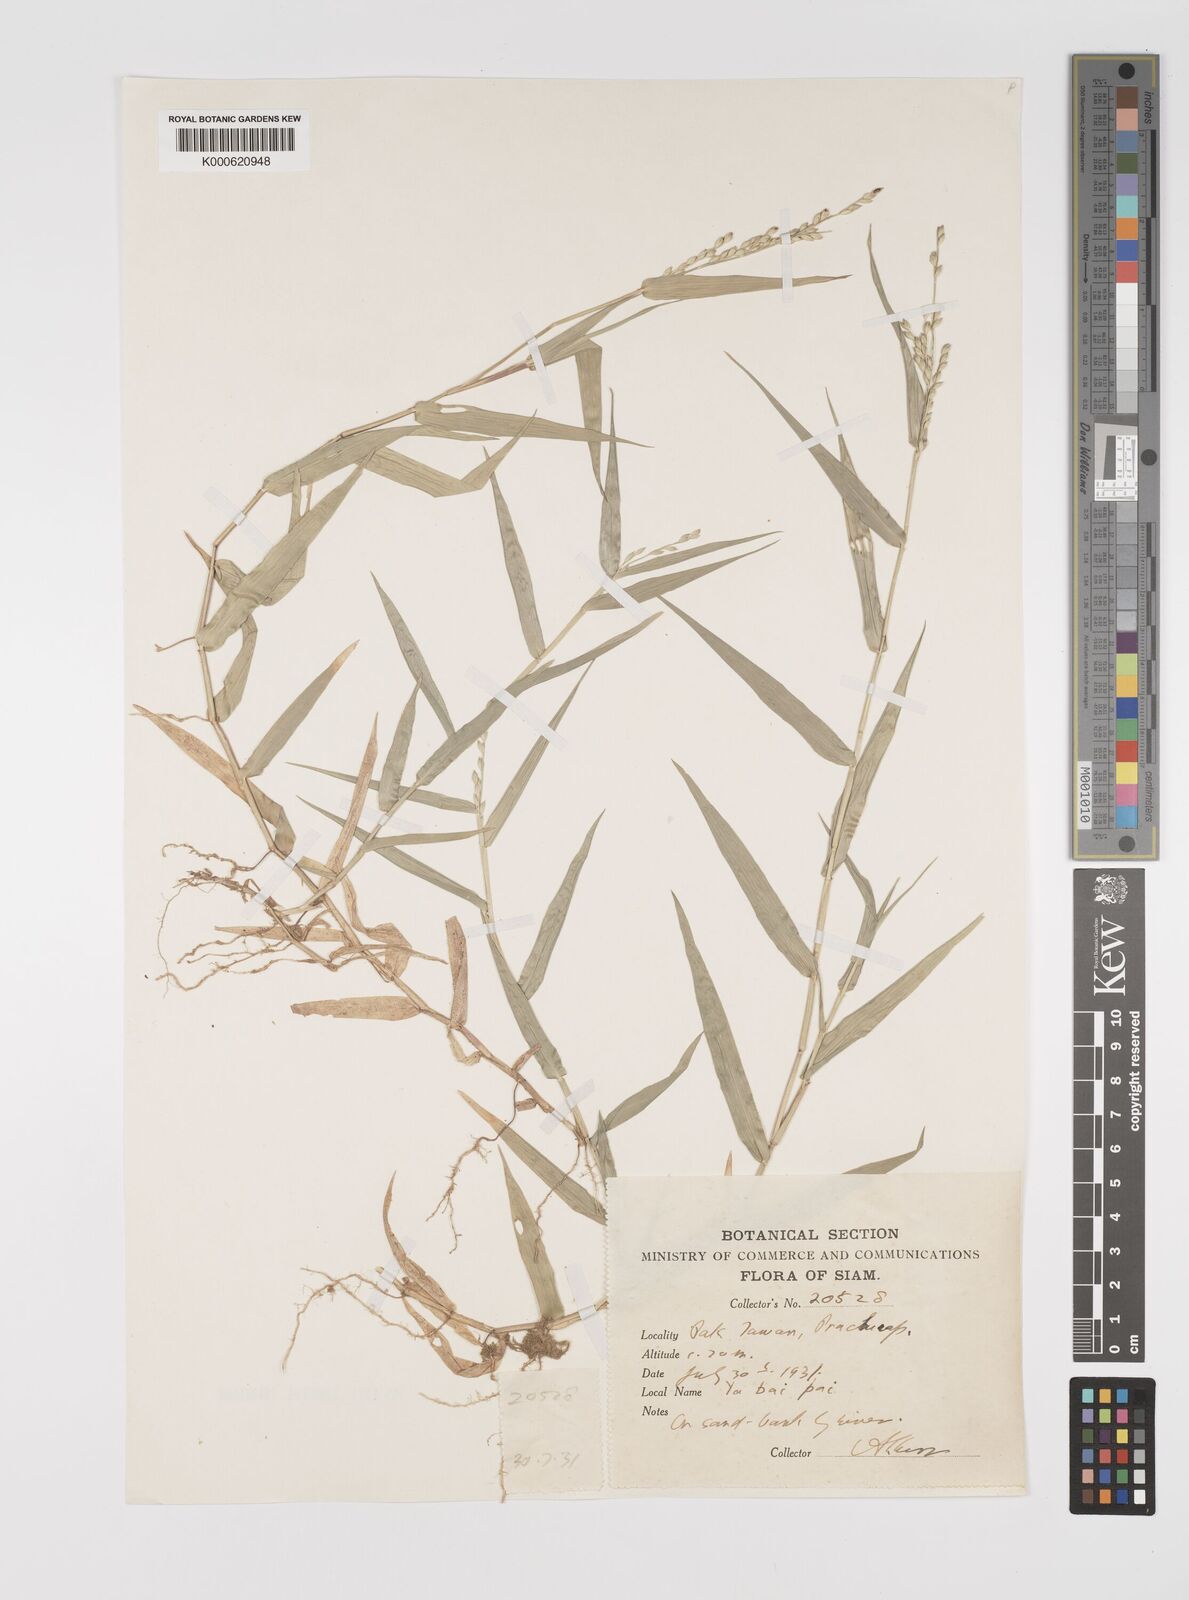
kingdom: Plantae
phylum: Tracheophyta
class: Liliopsida
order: Poales
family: Poaceae
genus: Acroceras
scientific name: Acroceras munroanum
